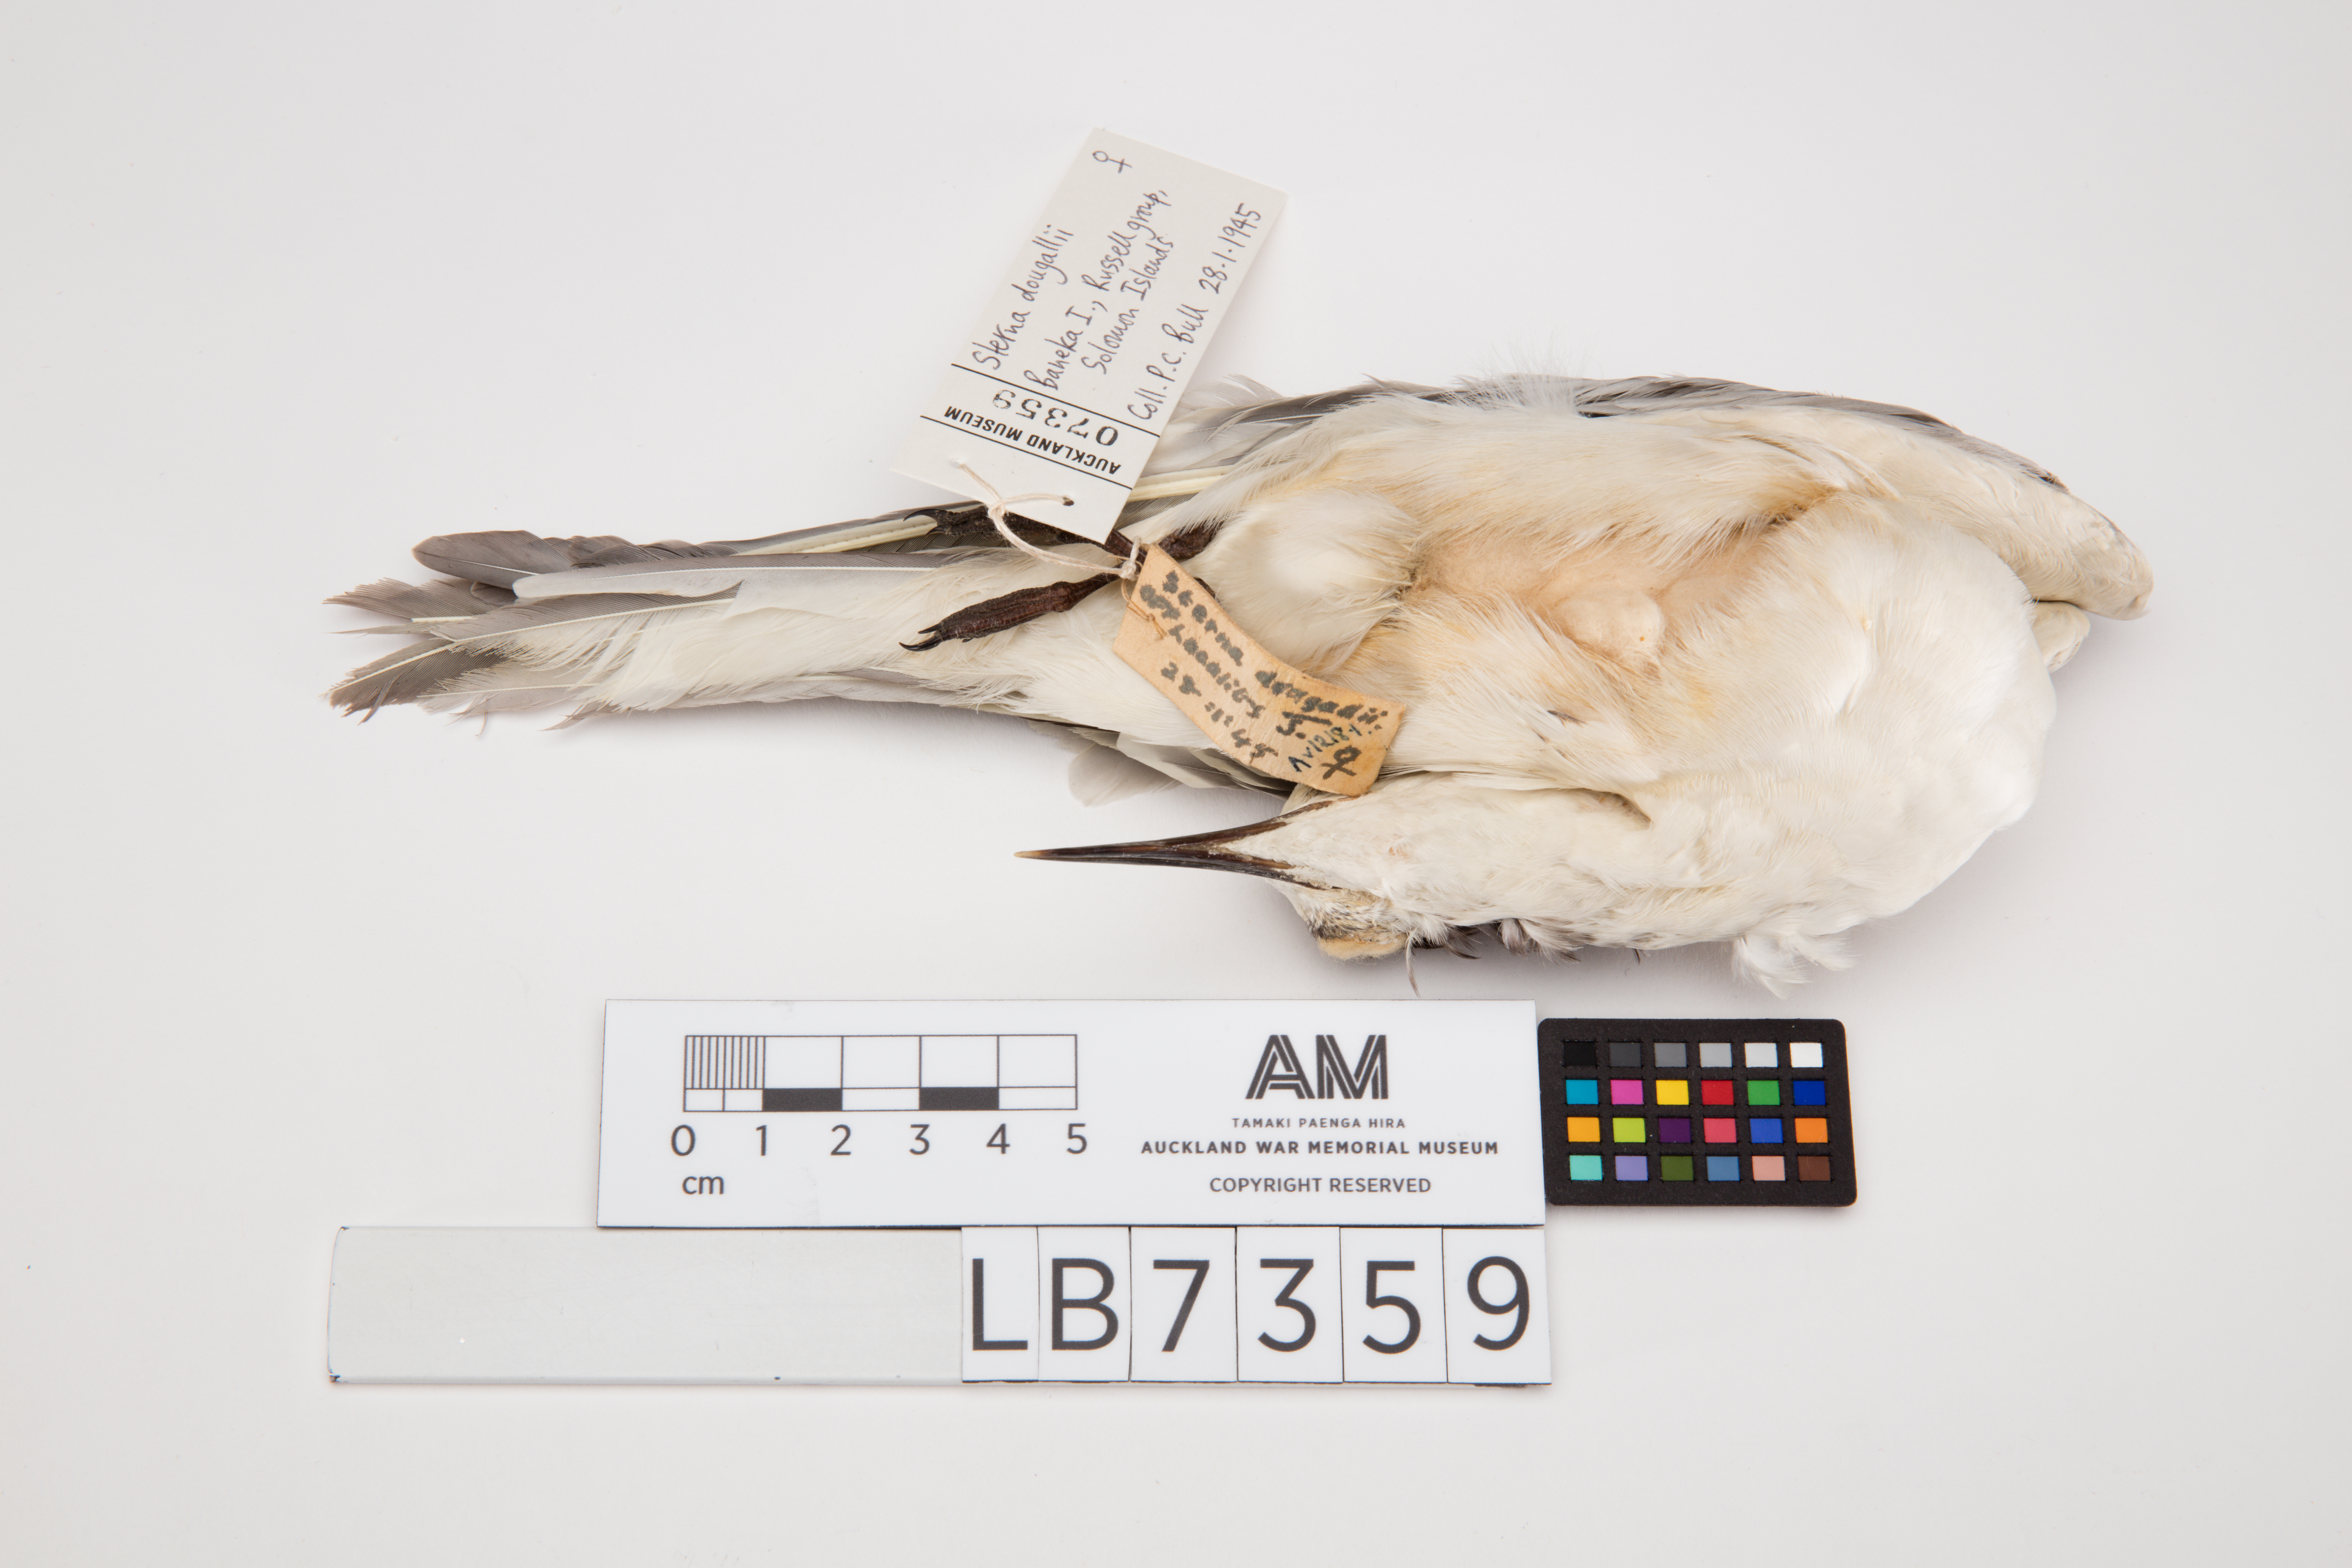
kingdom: Animalia
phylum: Chordata
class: Aves
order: Charadriiformes
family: Laridae
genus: Sterna
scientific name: Sterna dougallii
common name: Roseate tern
